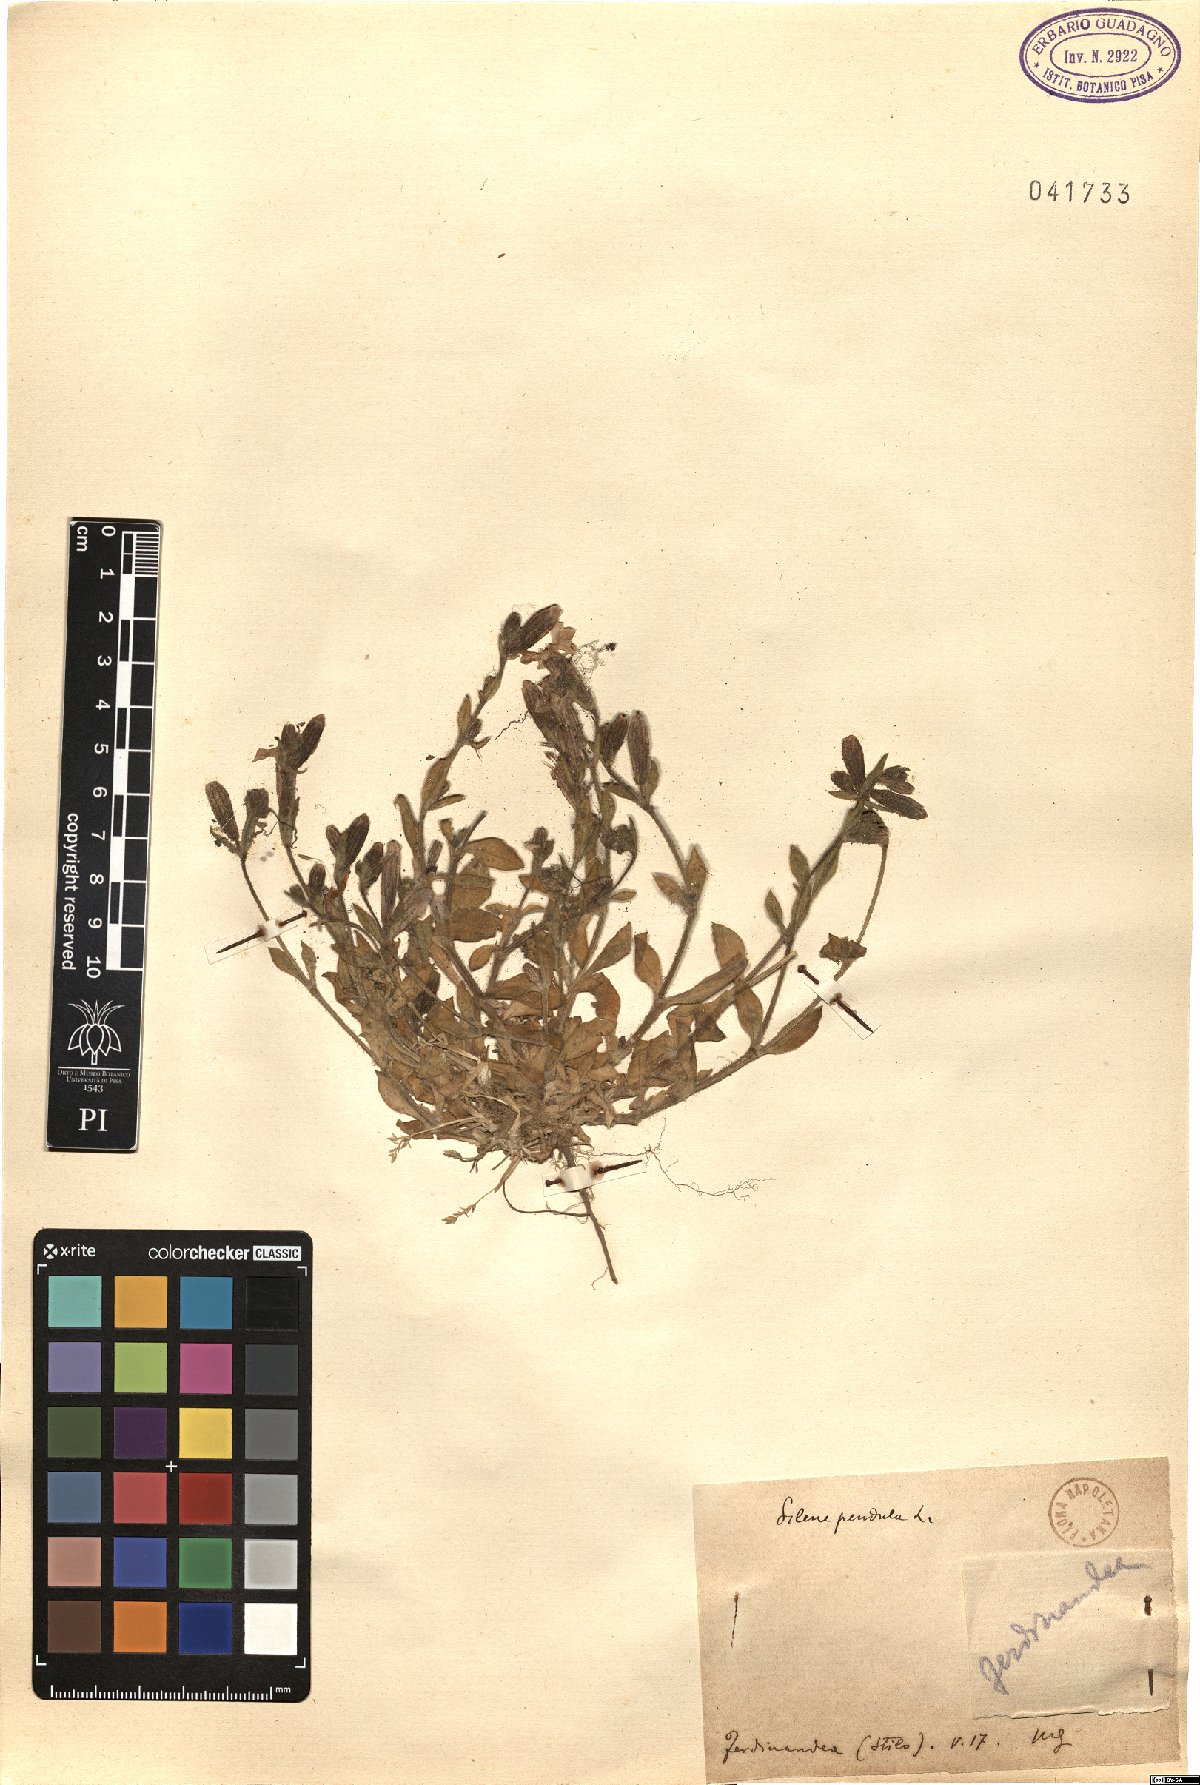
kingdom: Plantae
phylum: Tracheophyta
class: Magnoliopsida
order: Caryophyllales
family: Caryophyllaceae
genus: Silene
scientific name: Silene pendula
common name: Nodding catchfly
